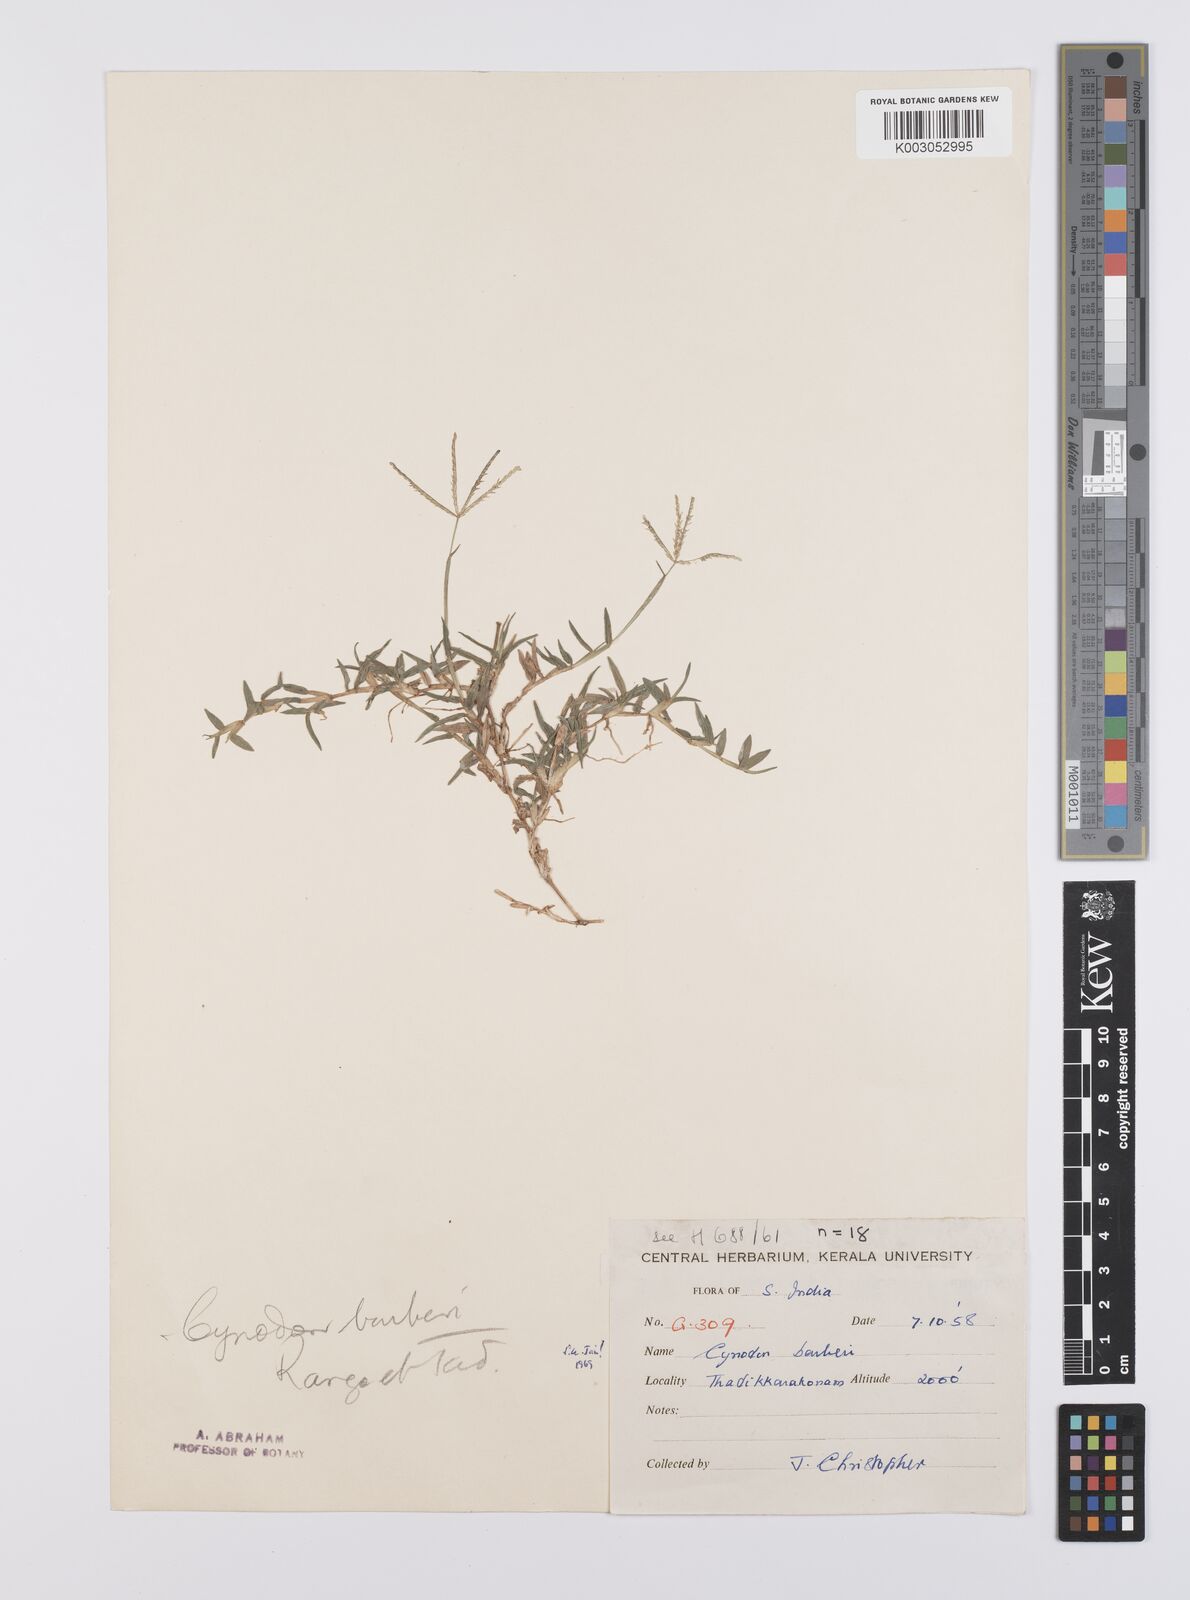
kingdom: Plantae
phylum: Tracheophyta
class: Liliopsida
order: Poales
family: Poaceae
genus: Cynodon
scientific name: Cynodon barberi
